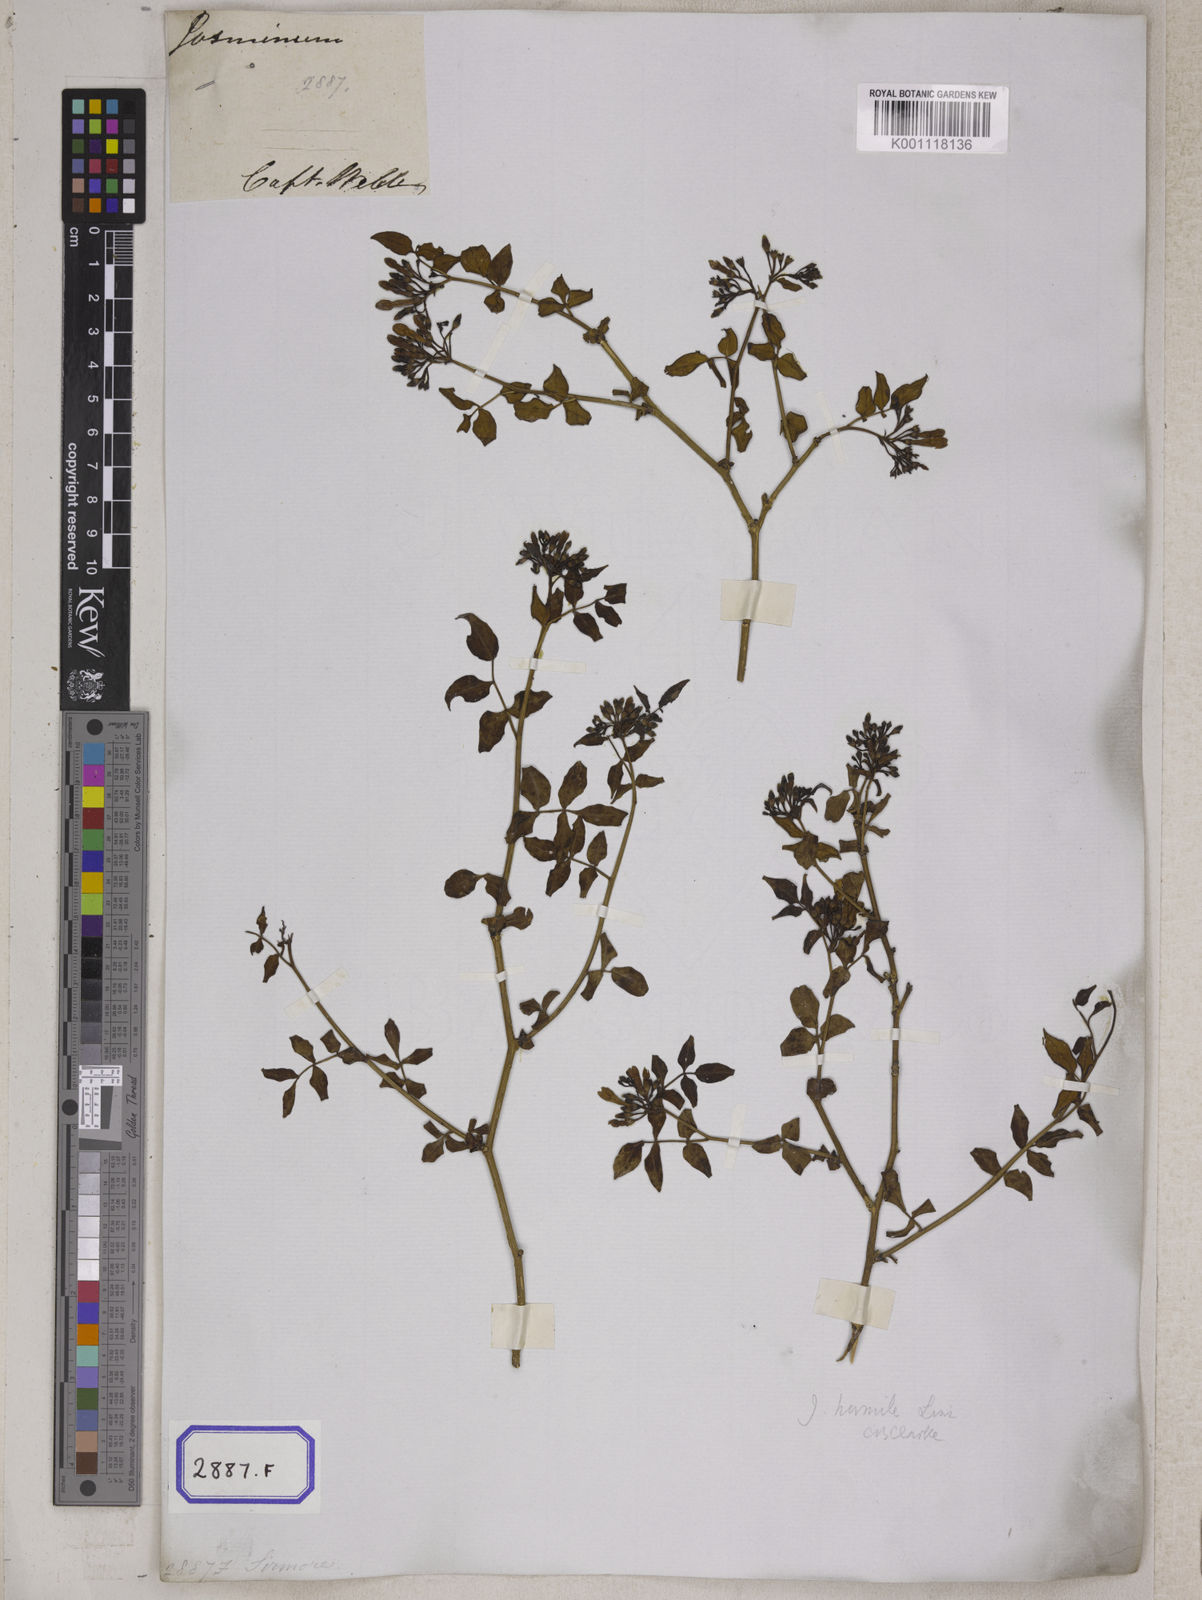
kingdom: Plantae
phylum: Tracheophyta
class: Magnoliopsida
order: Lamiales
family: Oleaceae
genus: Chrysojasminum
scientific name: Chrysojasminum humile
